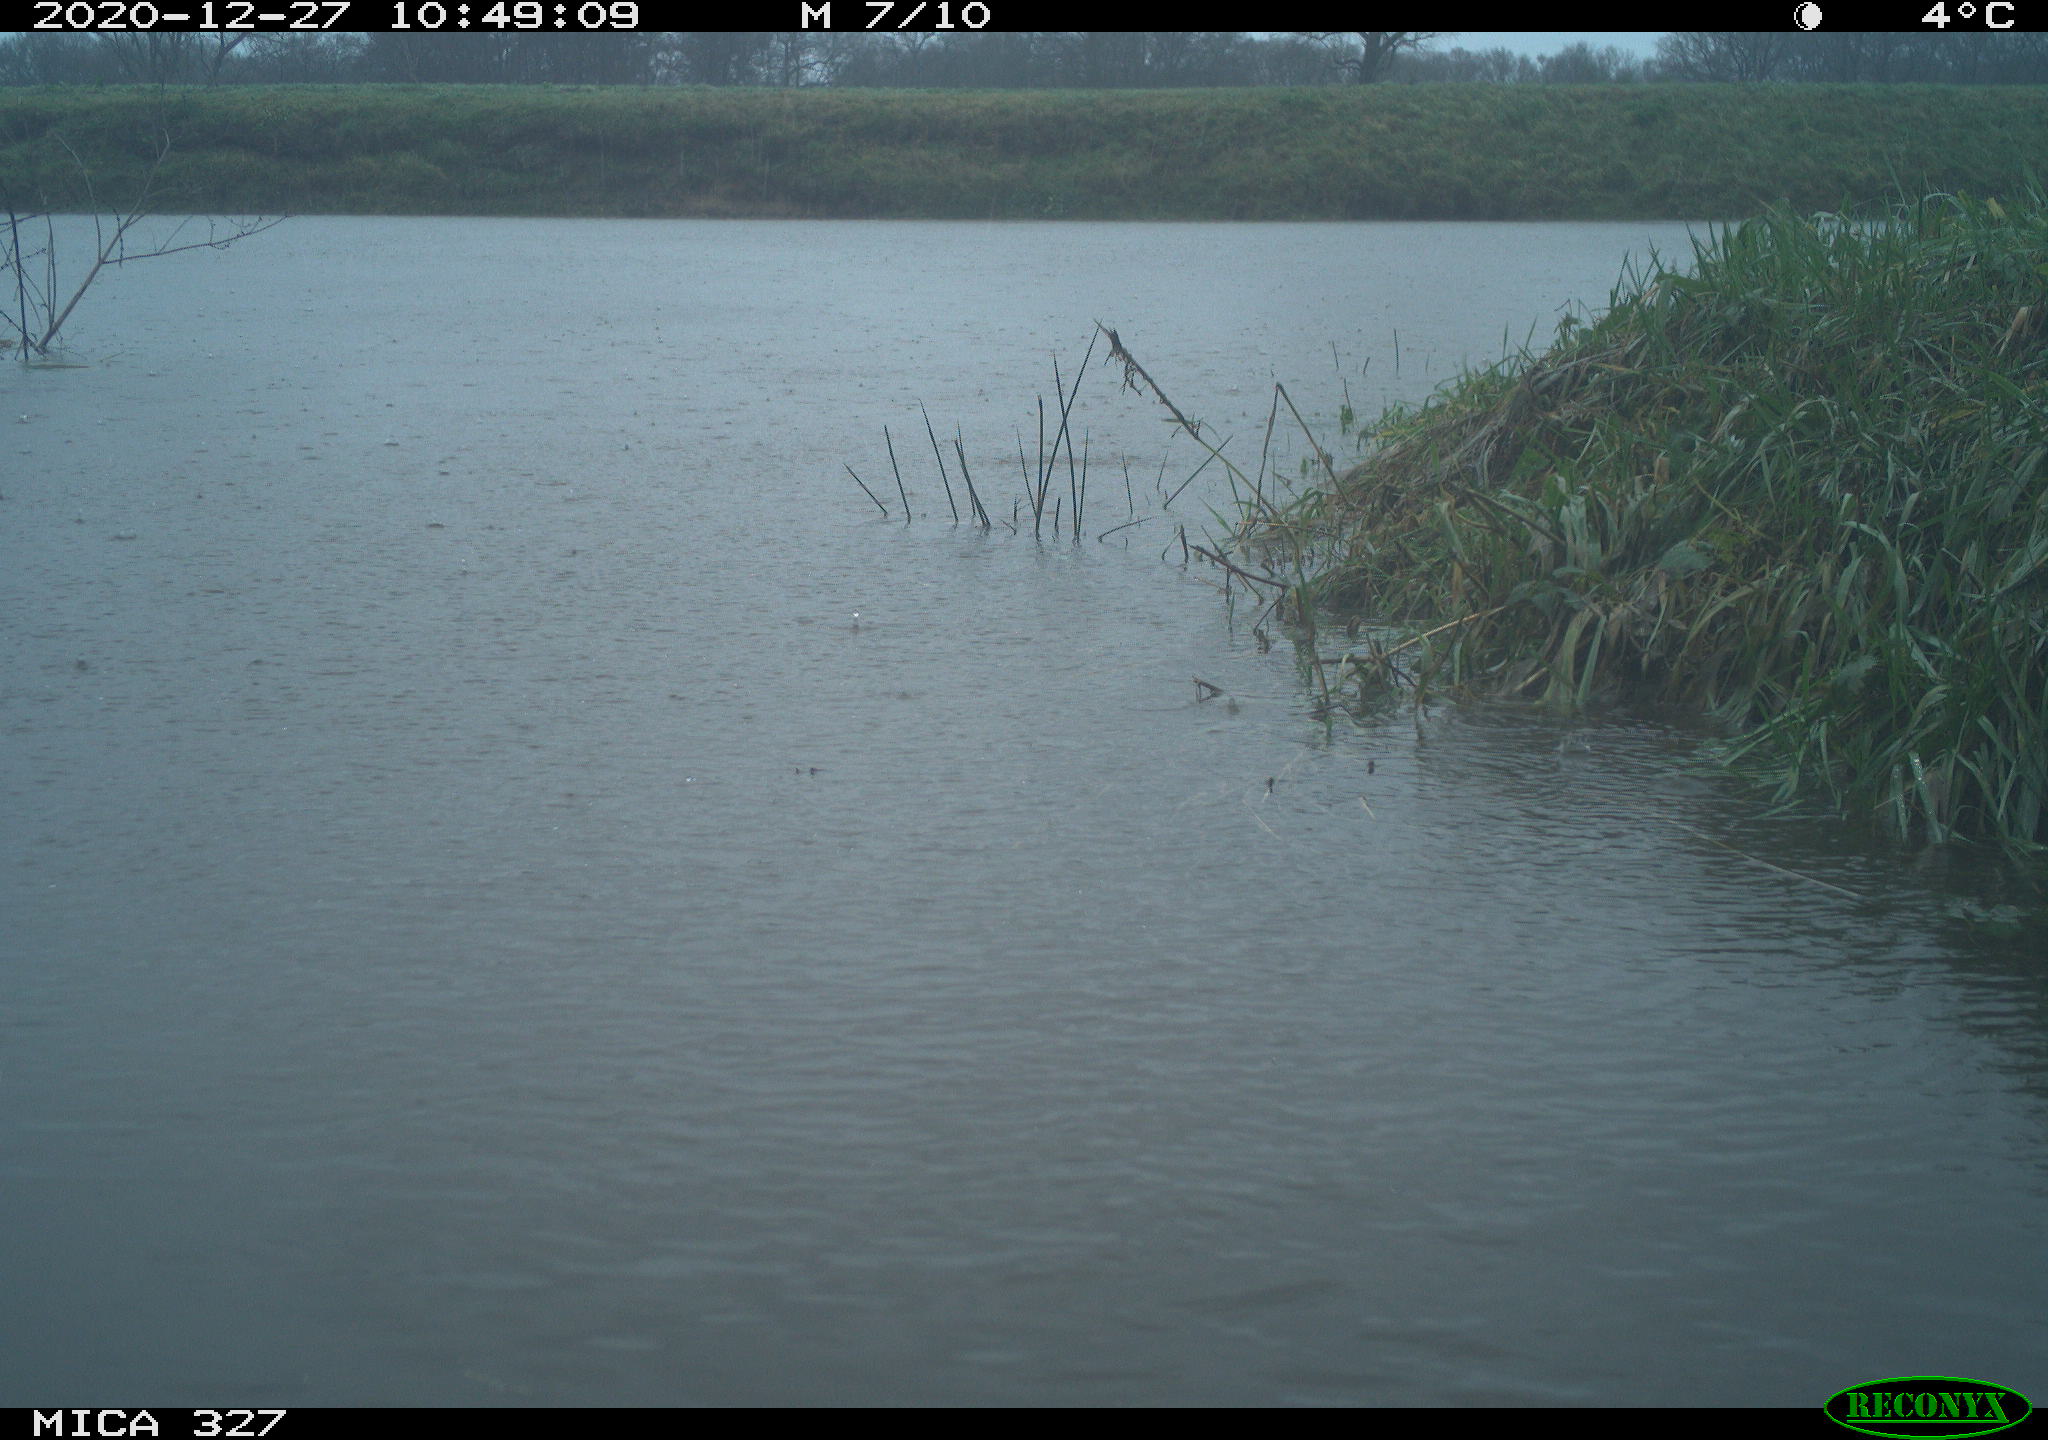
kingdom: Animalia
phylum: Chordata
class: Aves
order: Gruiformes
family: Rallidae
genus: Gallinula
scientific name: Gallinula chloropus
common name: Common moorhen
